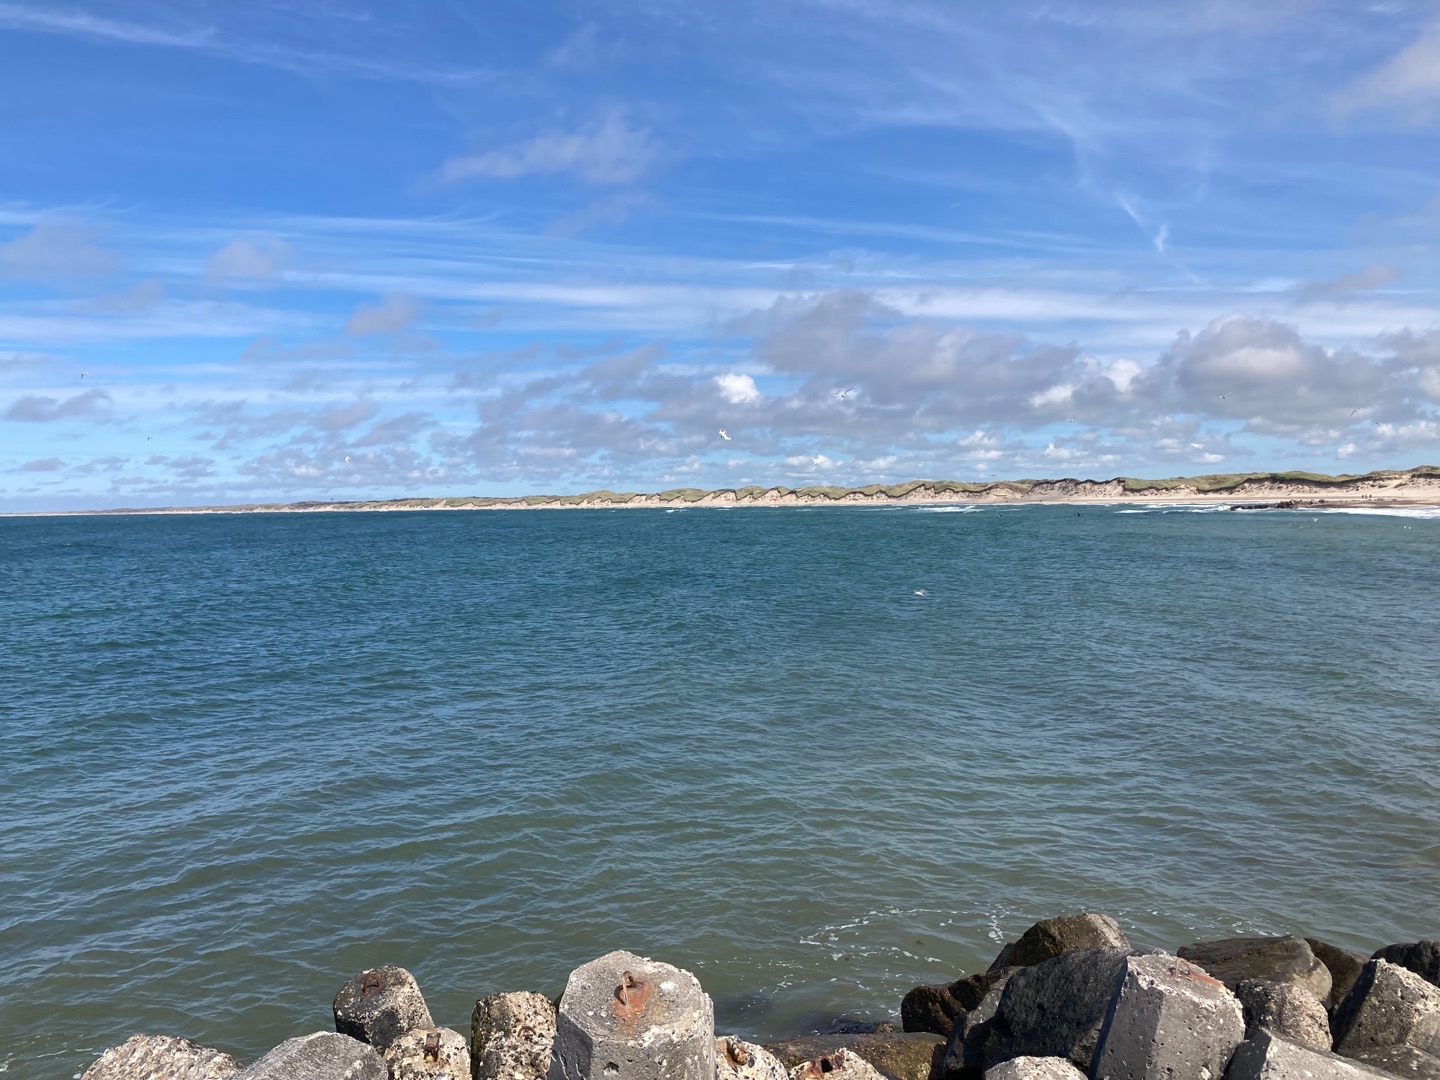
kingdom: Animalia
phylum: Chordata
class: Aves
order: Charadriiformes
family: Laridae
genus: Sterna
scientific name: Sterna paradisaea
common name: Havterne
